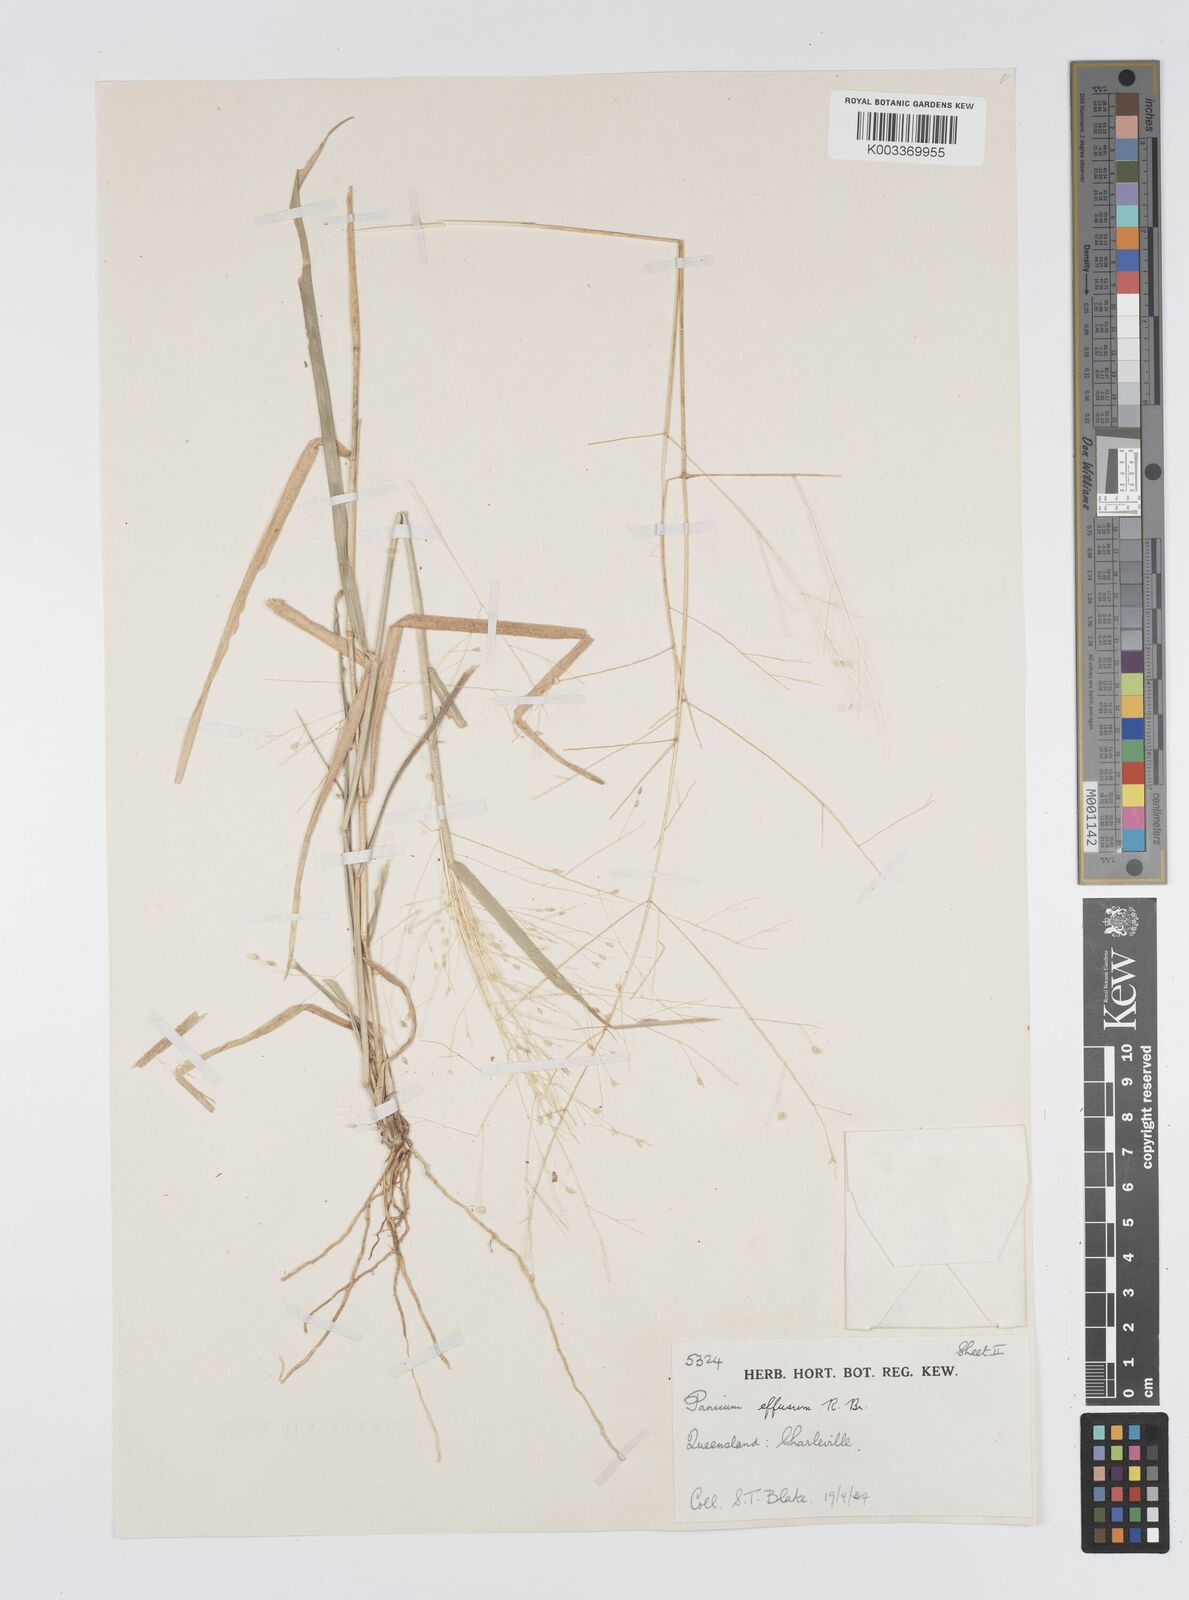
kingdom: Plantae
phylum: Tracheophyta
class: Liliopsida
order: Poales
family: Poaceae
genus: Panicum
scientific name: Panicum effusum
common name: Hairy panic grass
